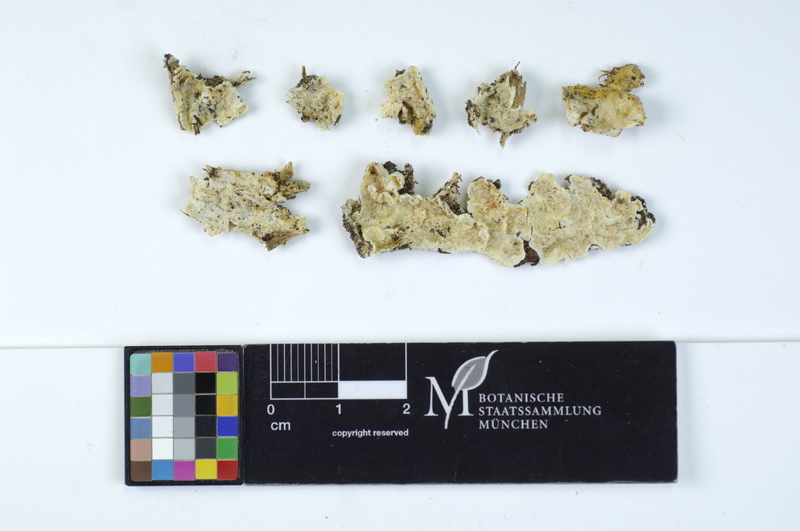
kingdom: Plantae
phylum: Tracheophyta
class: Pinopsida
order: Pinales
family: Pinaceae
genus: Pinus
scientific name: Pinus
